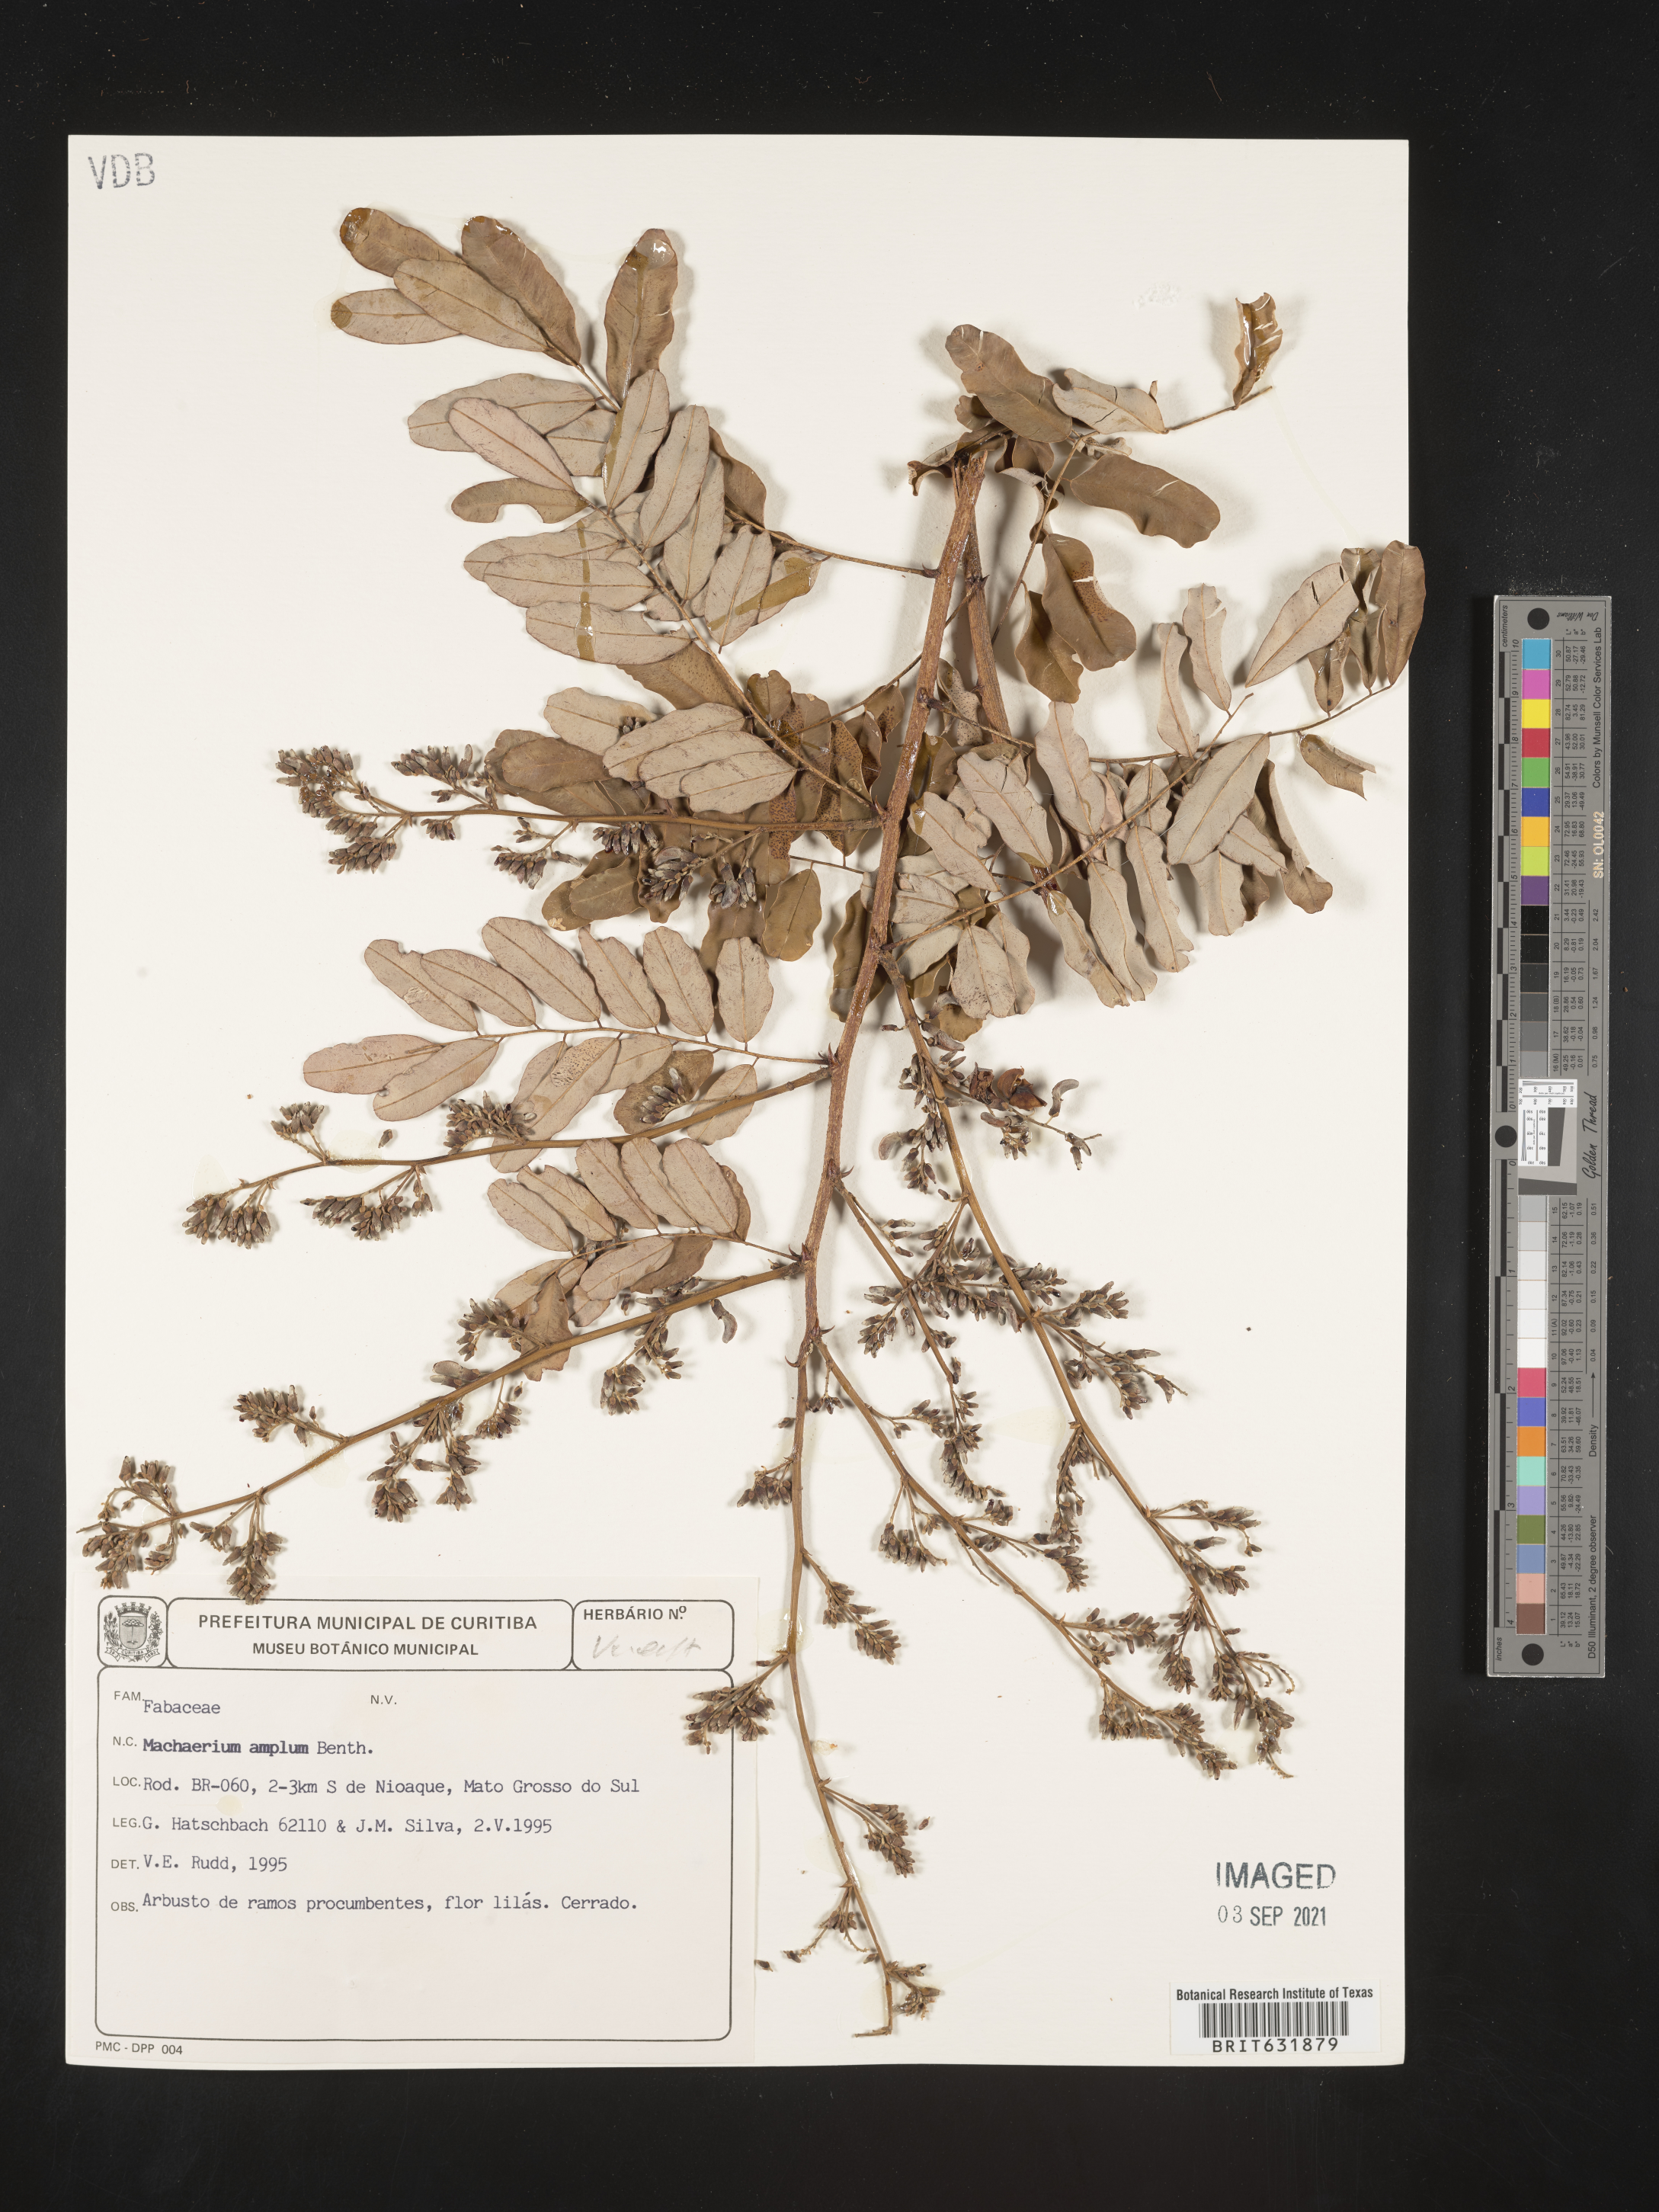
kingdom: Plantae
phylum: Tracheophyta
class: Magnoliopsida
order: Fabales
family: Fabaceae
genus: Machaerium
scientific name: Machaerium
